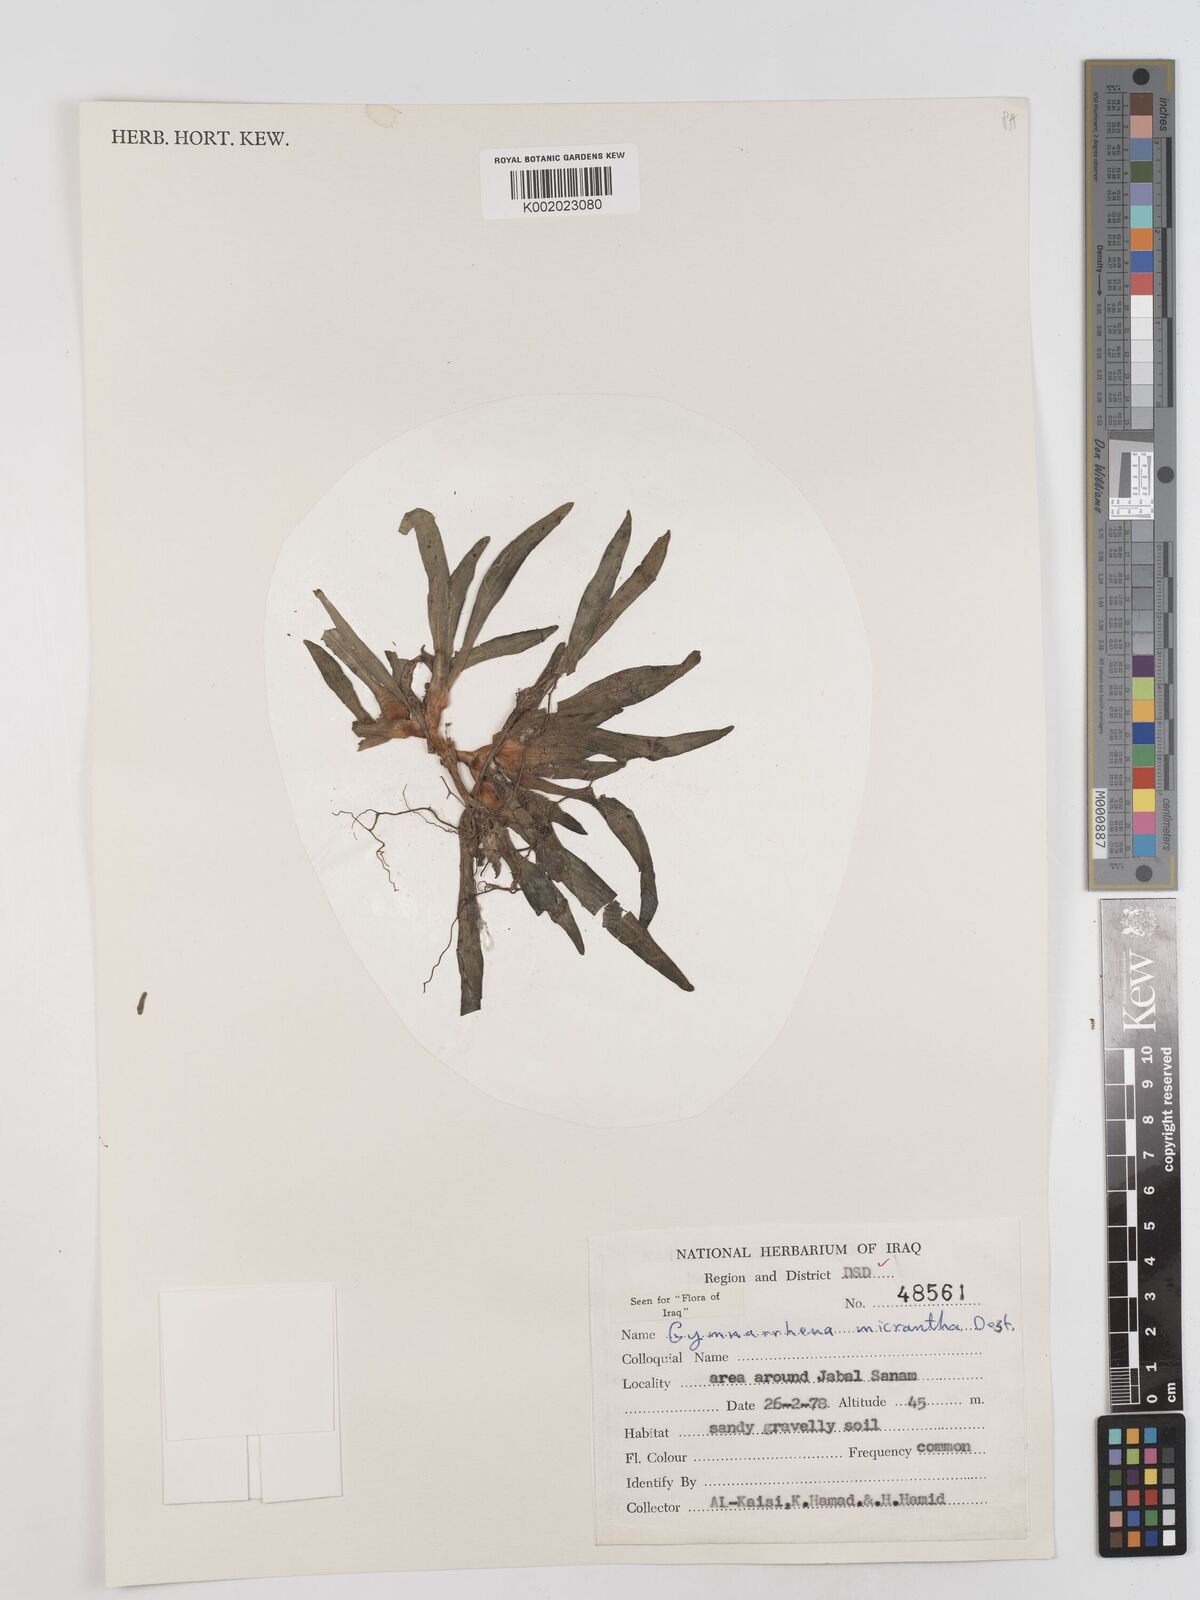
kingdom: Plantae
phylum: Tracheophyta
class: Magnoliopsida
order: Asterales
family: Asteraceae
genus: Gymnarrhena
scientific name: Gymnarrhena micrantha
